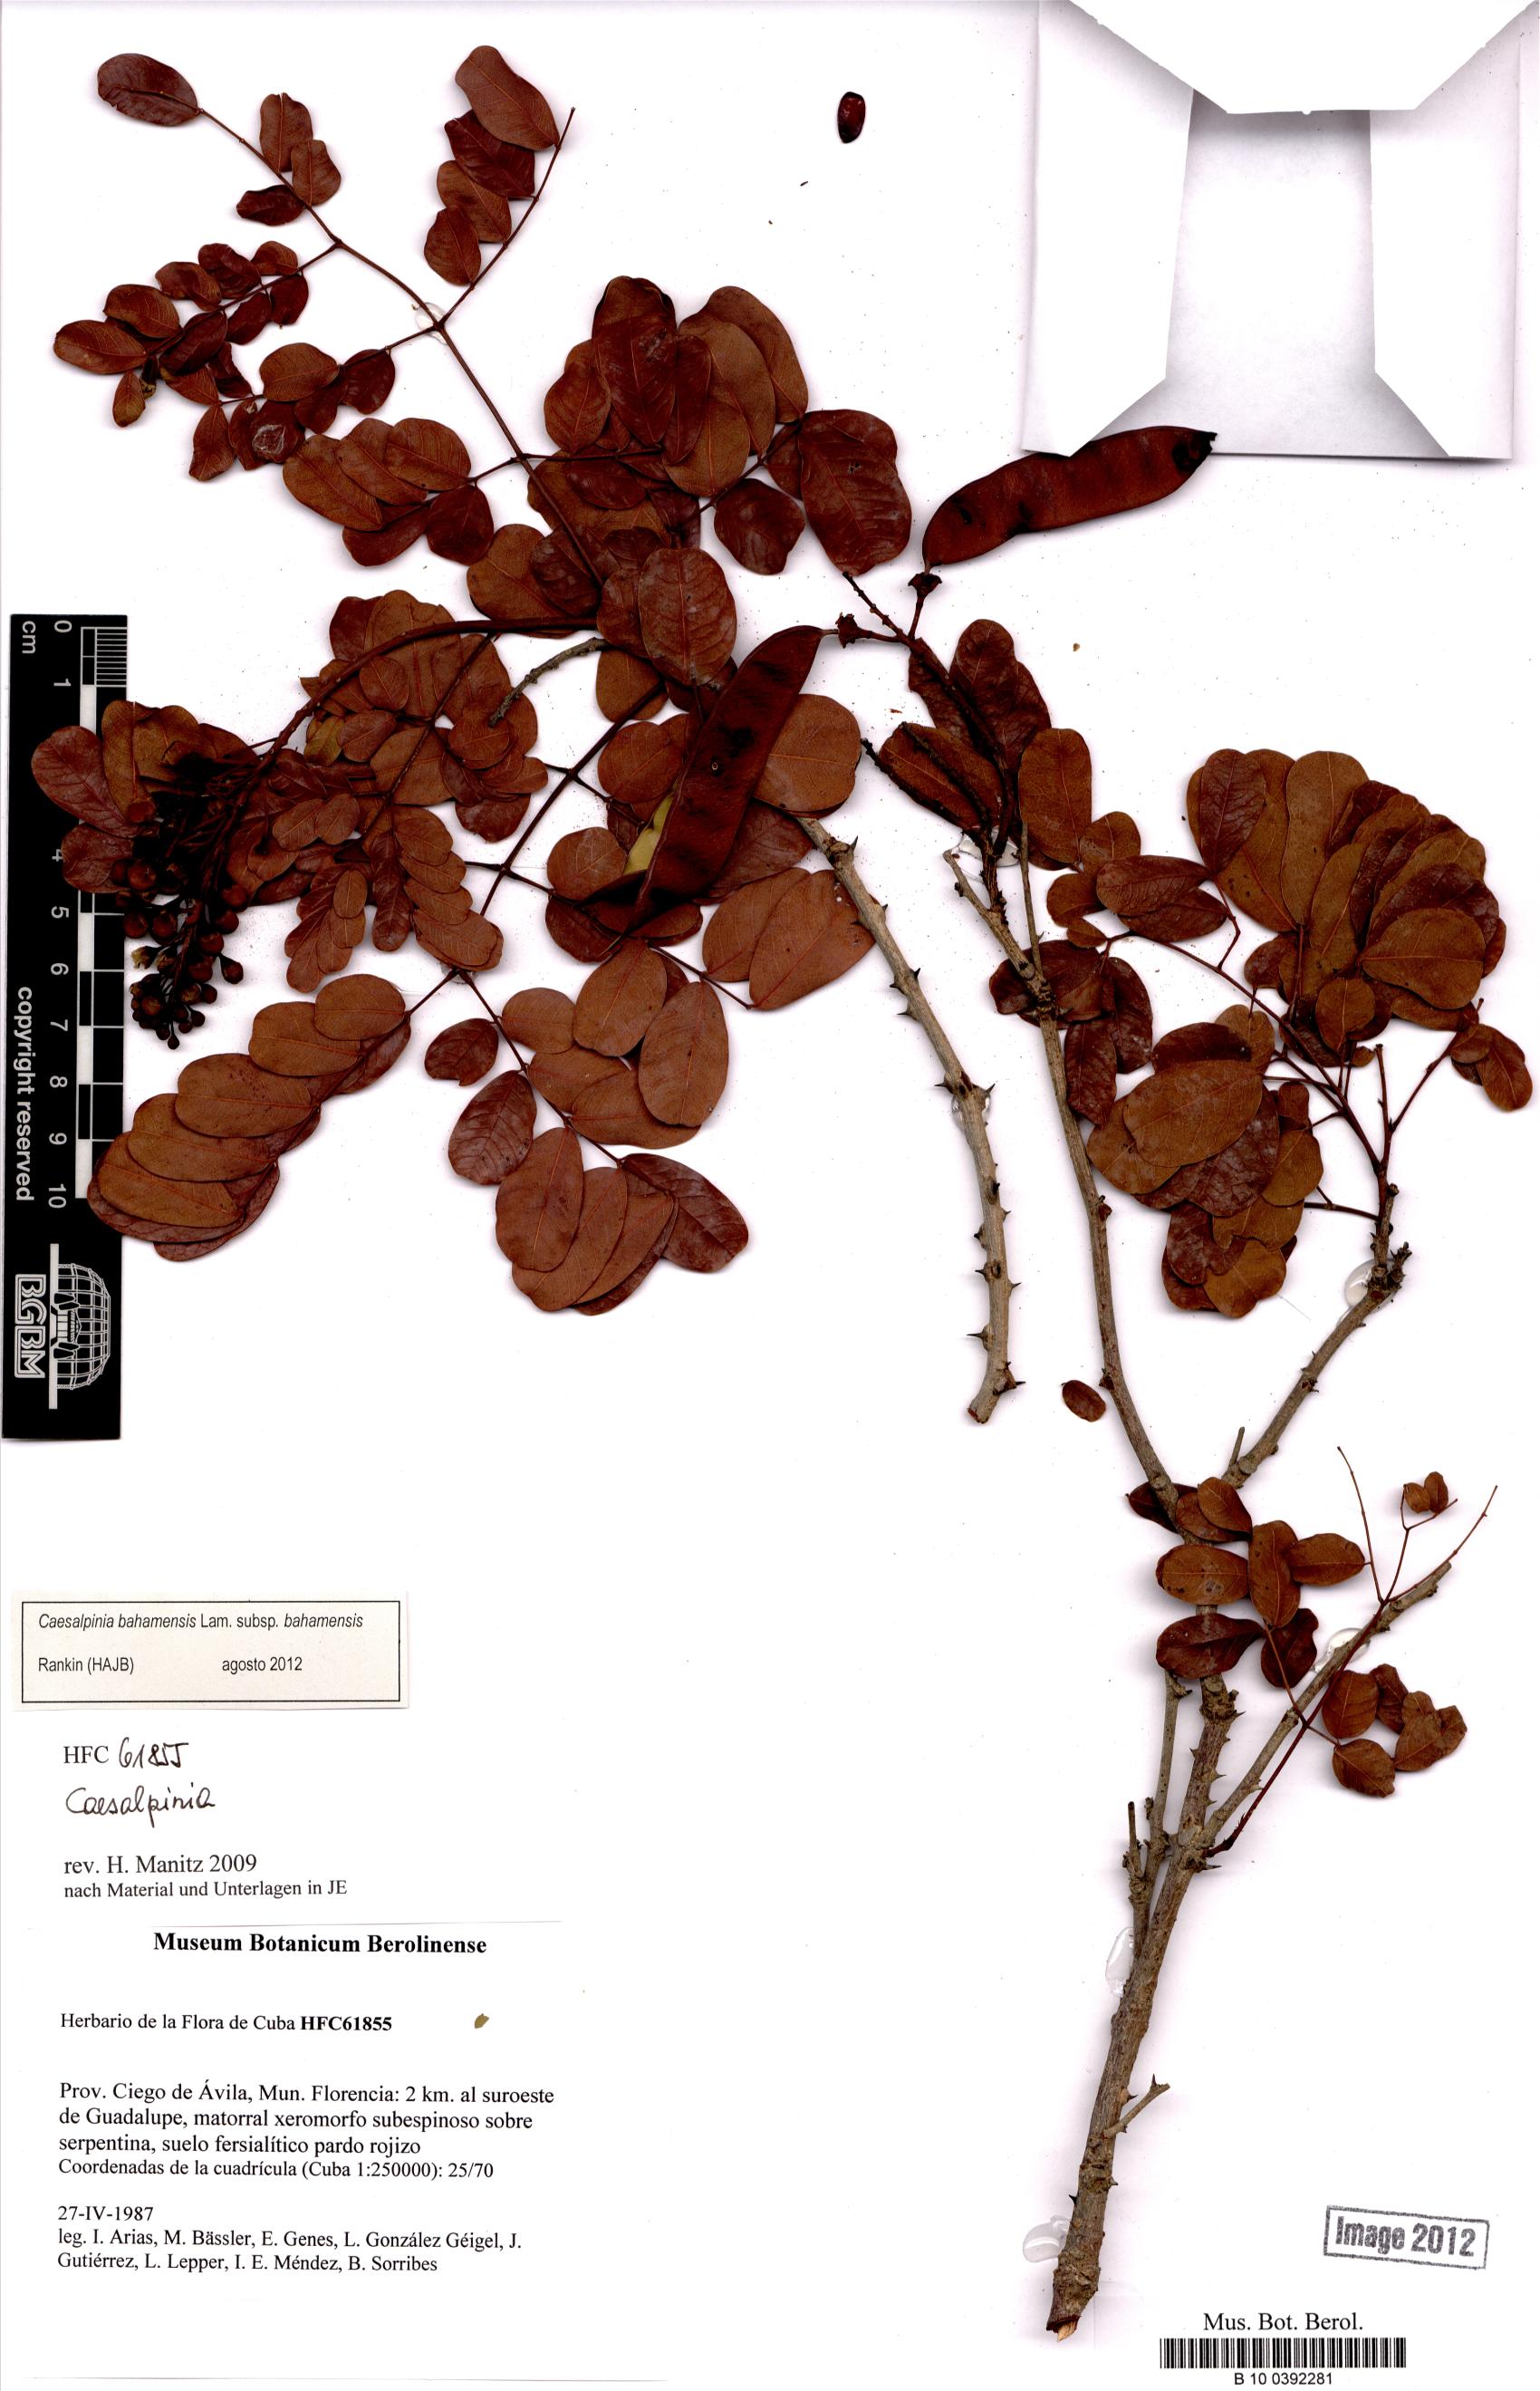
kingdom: Plantae
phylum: Tracheophyta
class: Magnoliopsida
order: Fabales
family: Fabaceae
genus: Caesalpinia
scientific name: Caesalpinia bahamensis
